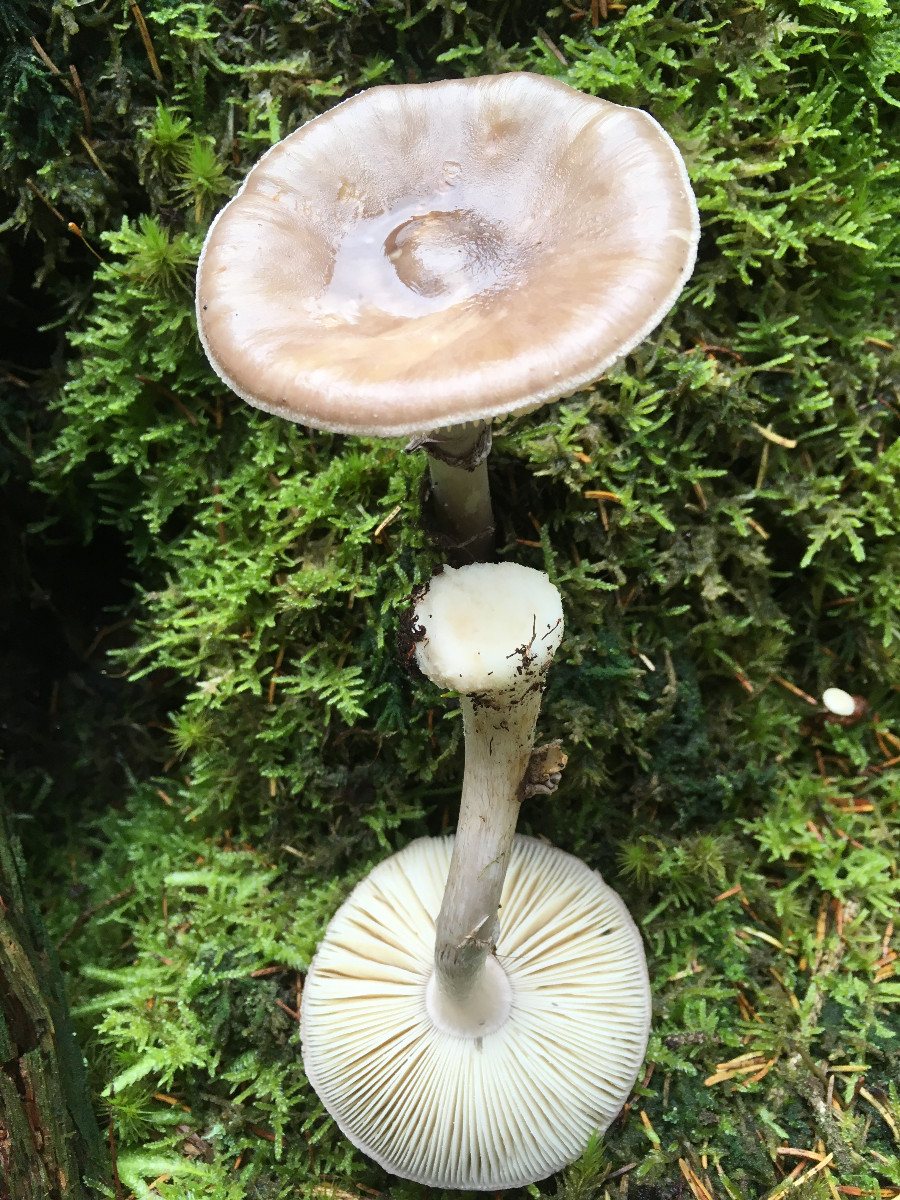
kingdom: Fungi
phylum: Basidiomycota
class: Agaricomycetes
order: Agaricales
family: Amanitaceae
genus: Amanita
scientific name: Amanita porphyria
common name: porfyr-fluesvamp
